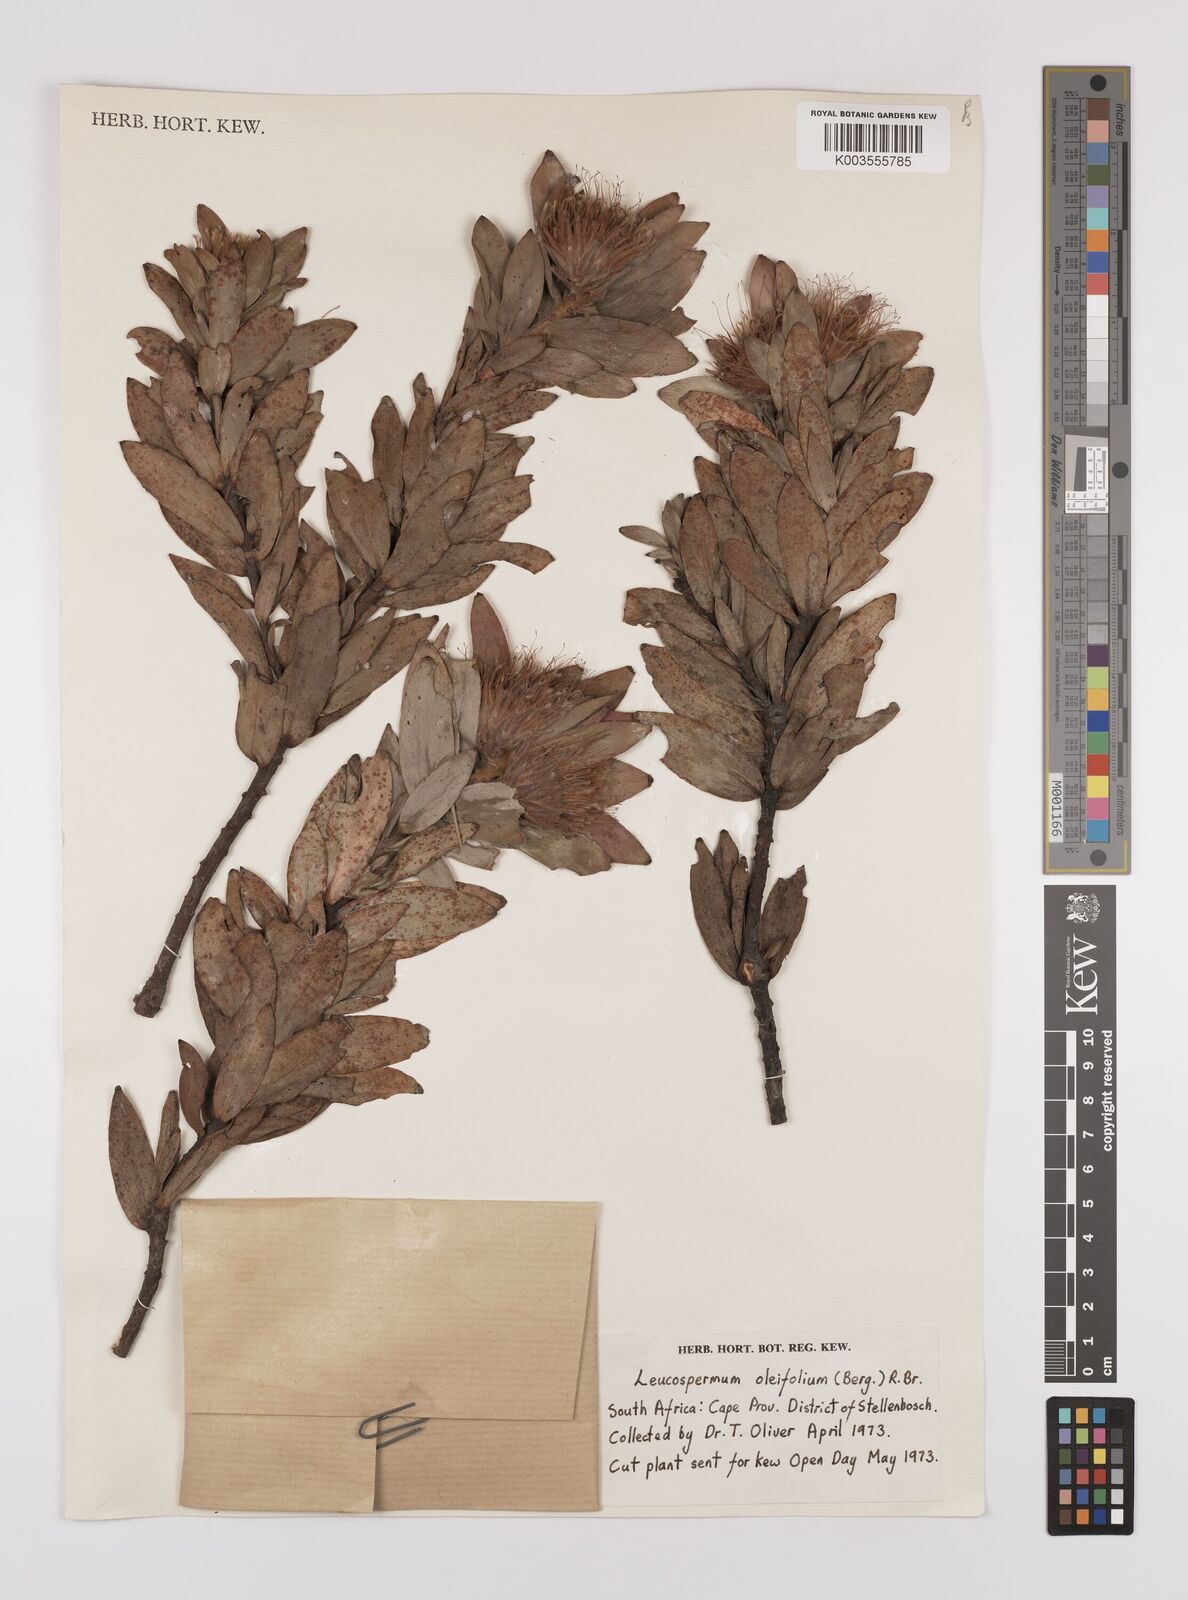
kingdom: Plantae
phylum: Tracheophyta
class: Magnoliopsida
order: Proteales
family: Proteaceae
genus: Leucospermum
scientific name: Leucospermum oleifolium
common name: Matches
